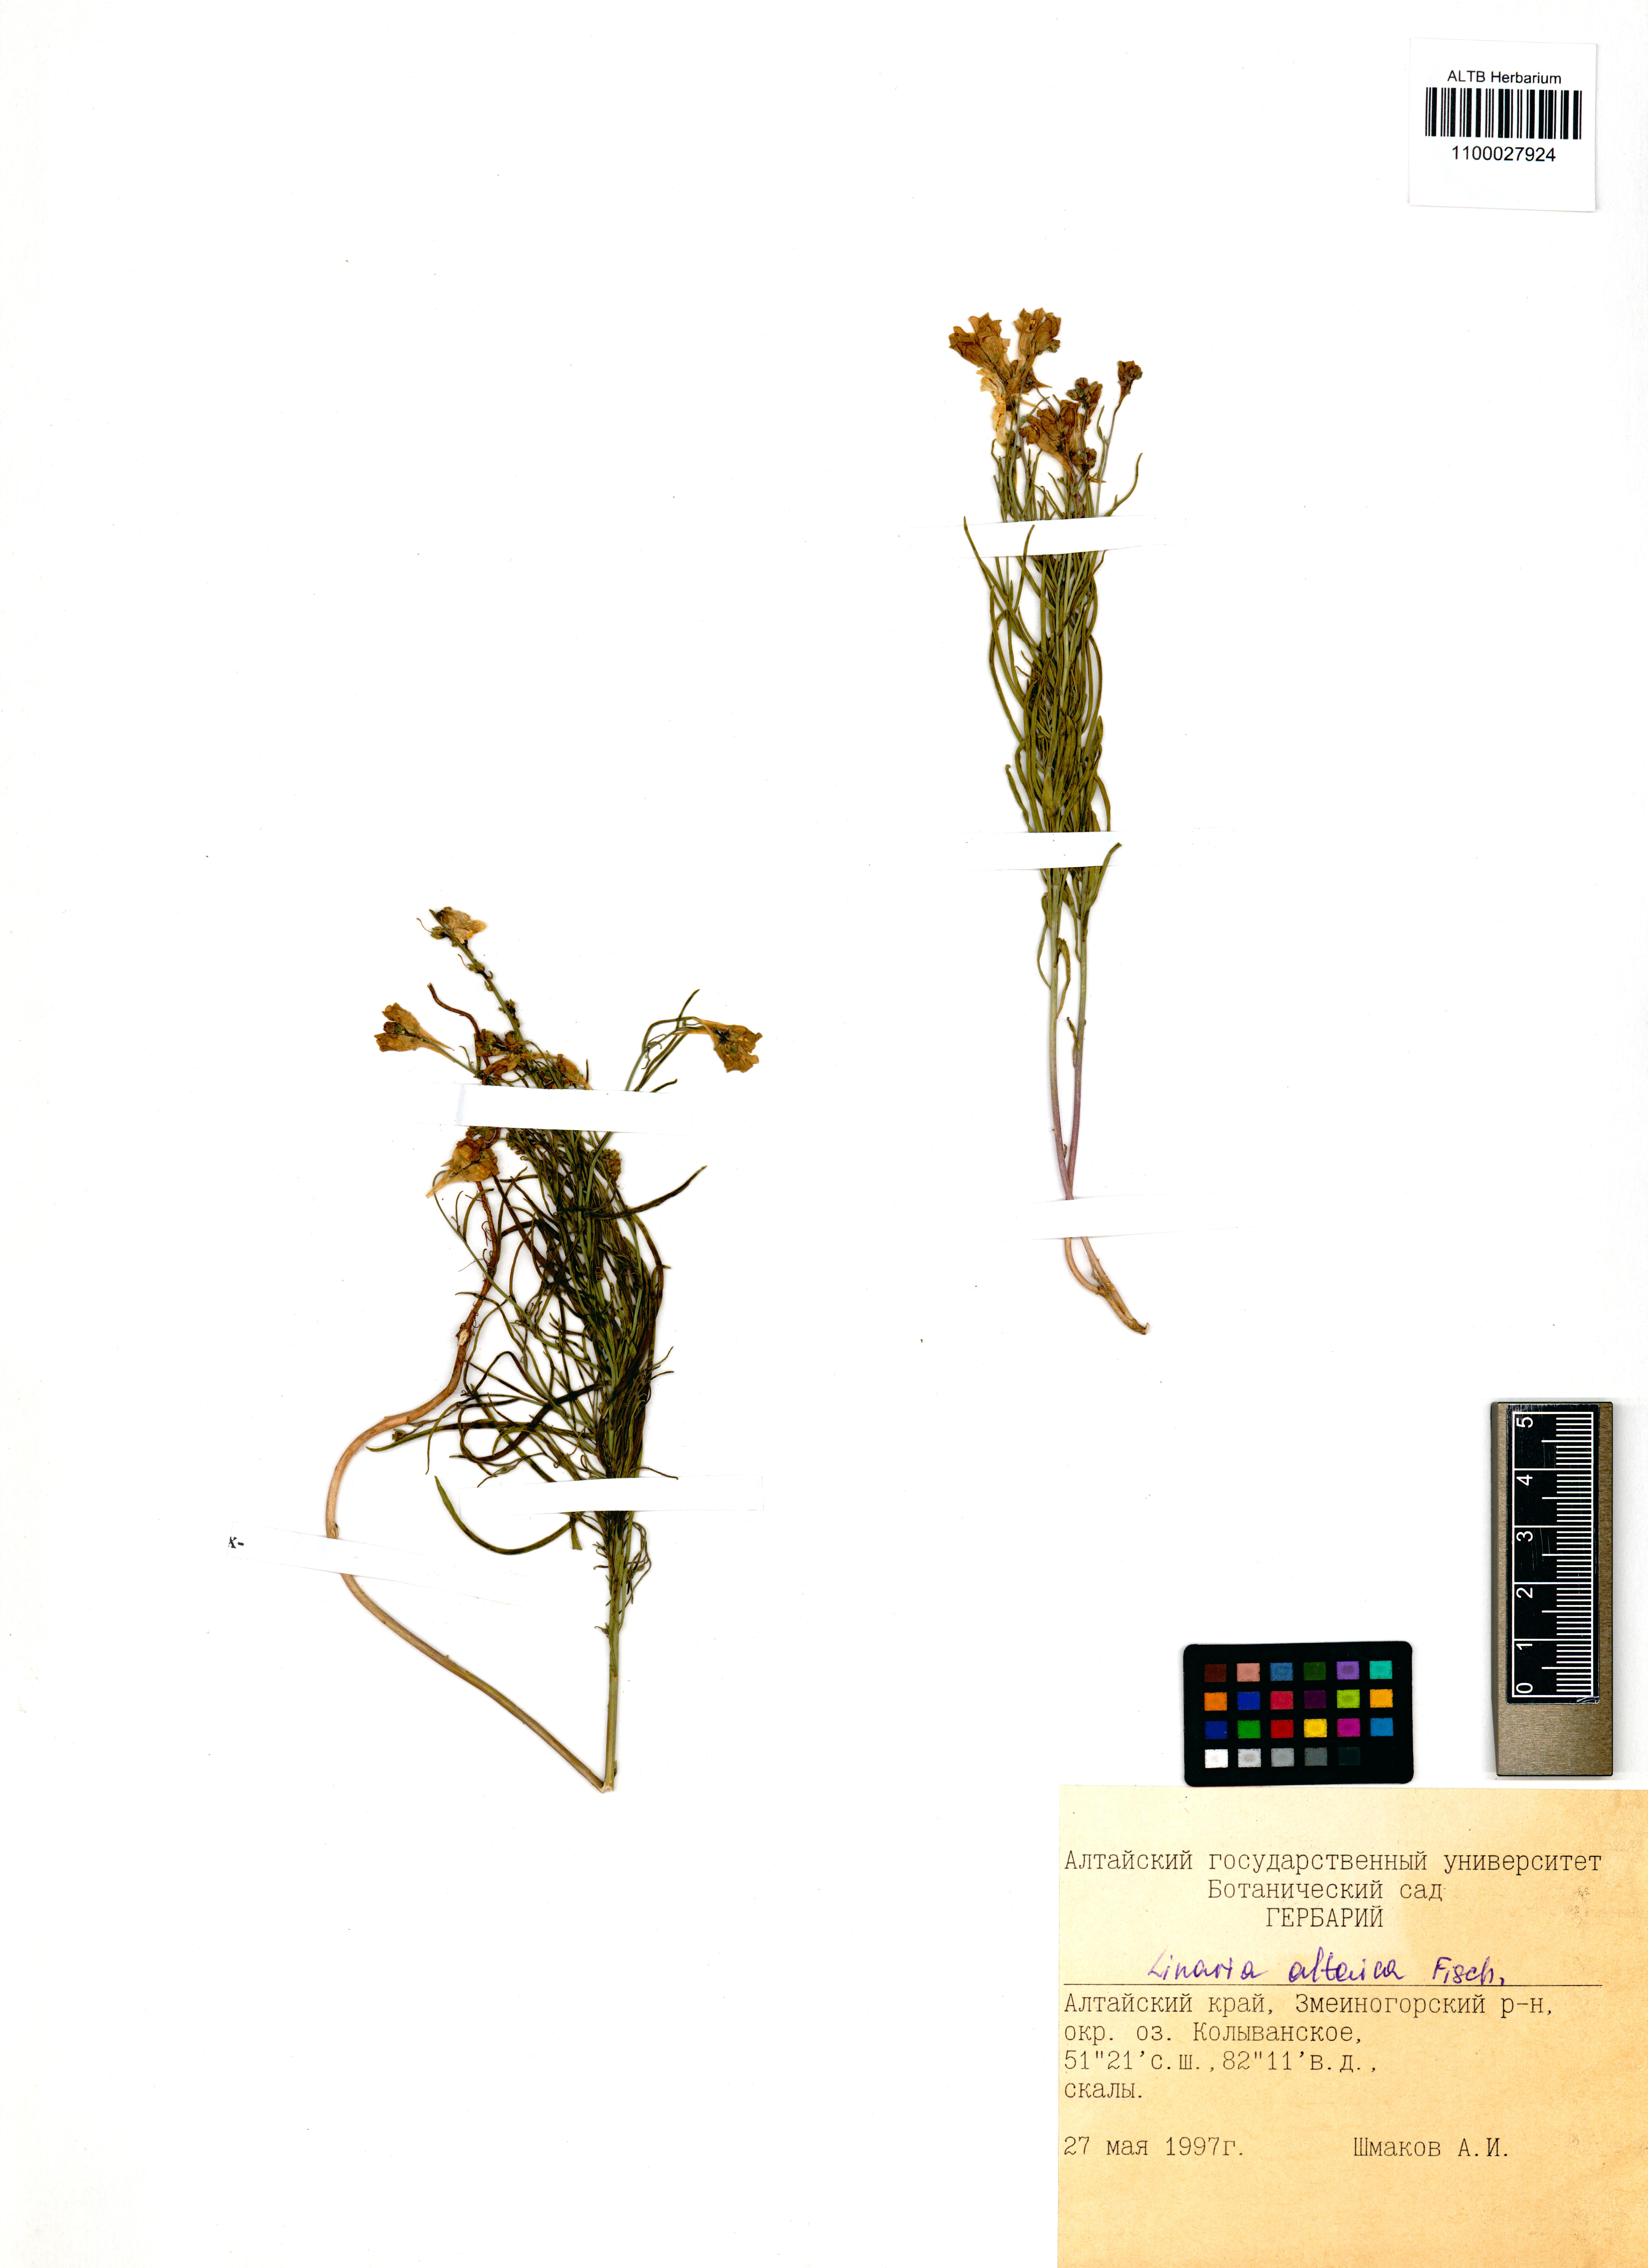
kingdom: Plantae
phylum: Tracheophyta
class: Magnoliopsida
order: Lamiales
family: Plantaginaceae
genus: Linaria
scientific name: Linaria altaica
